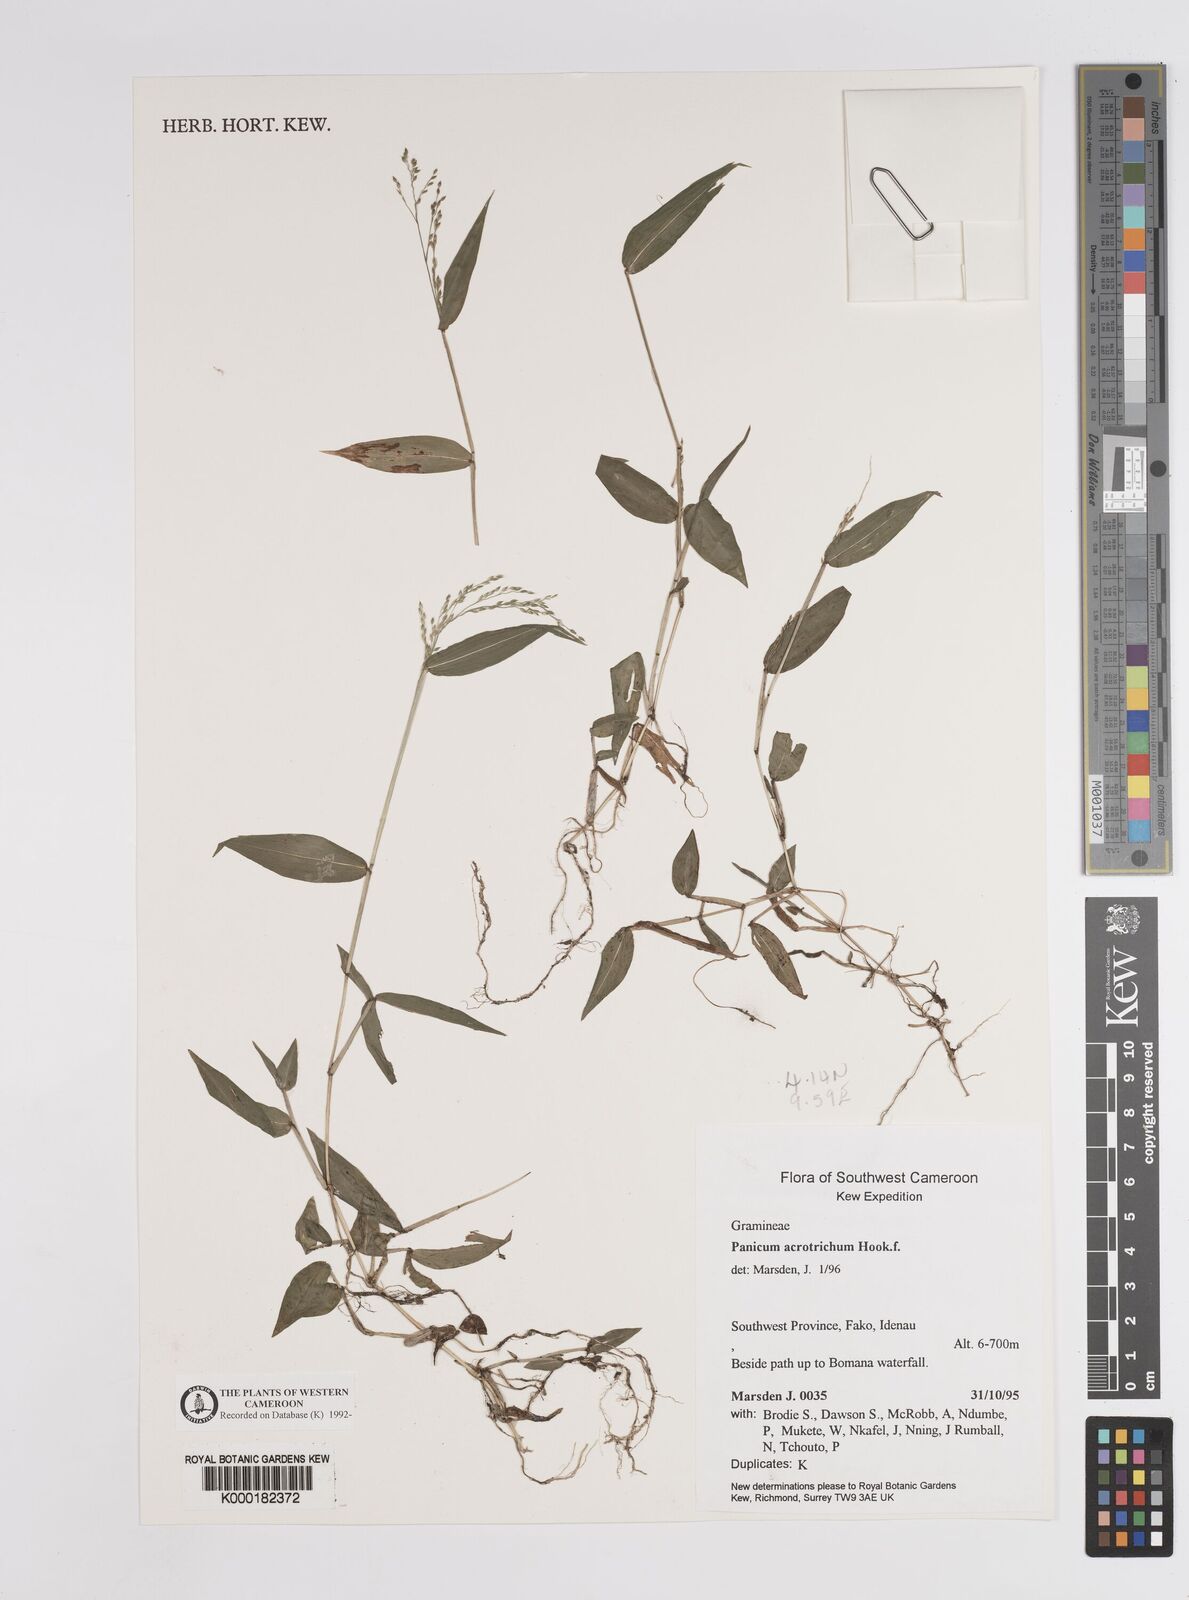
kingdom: Plantae
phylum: Tracheophyta
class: Liliopsida
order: Poales
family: Poaceae
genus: Panicum
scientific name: Panicum acrotrichum
